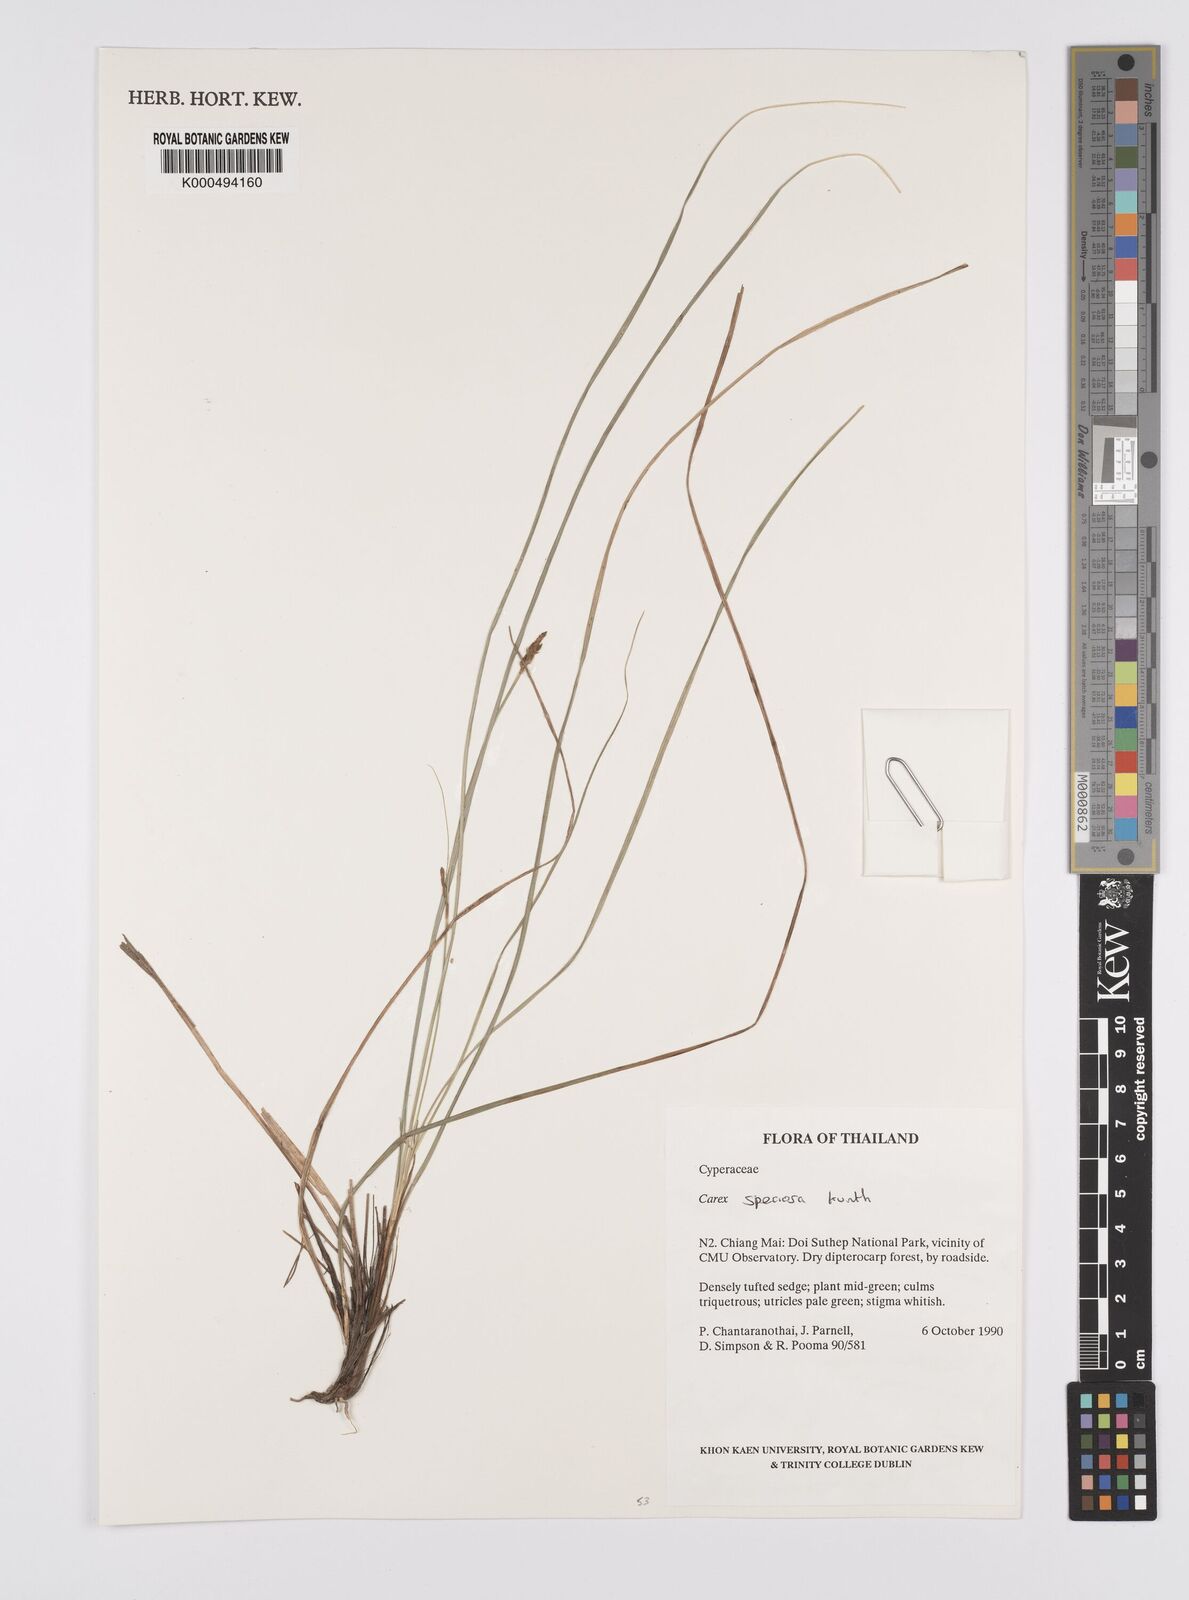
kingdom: Plantae
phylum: Tracheophyta
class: Liliopsida
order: Poales
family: Cyperaceae
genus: Carex
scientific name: Carex speciosa
